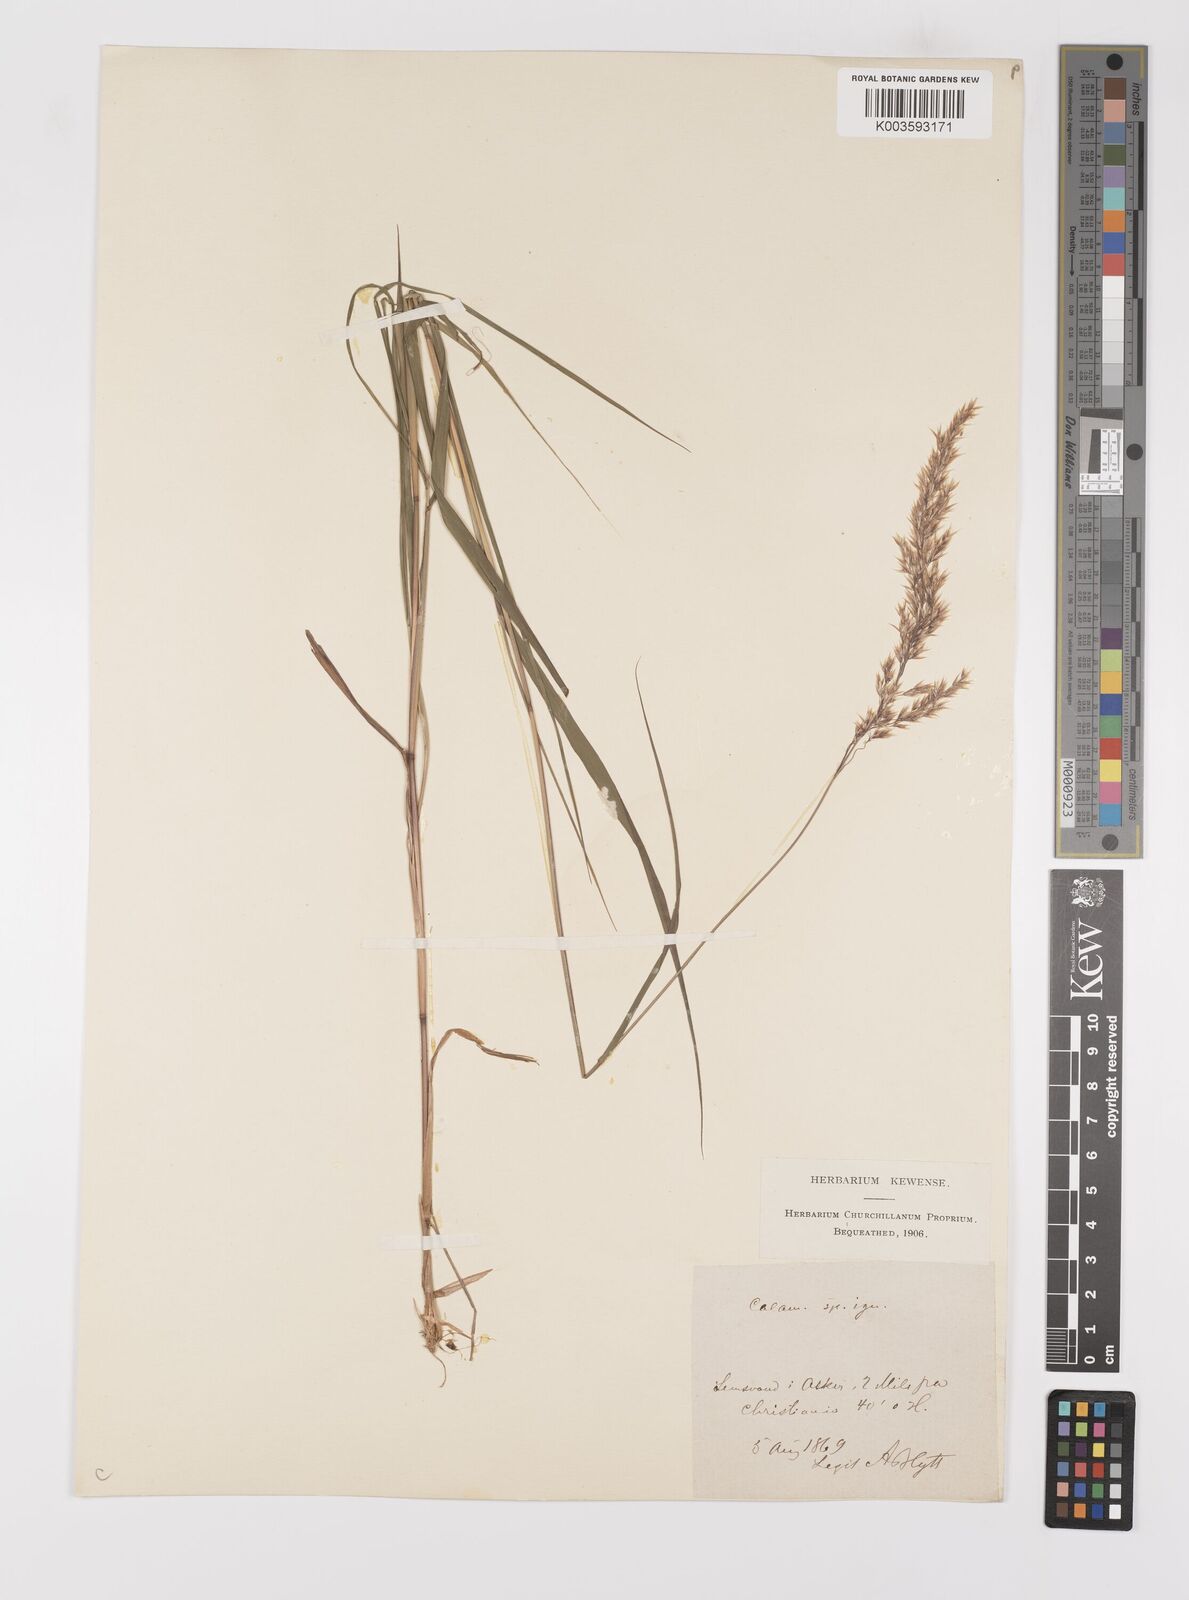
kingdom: Plantae
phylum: Tracheophyta
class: Liliopsida
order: Poales
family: Poaceae
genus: Calamagrostis
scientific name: Calamagrostis
